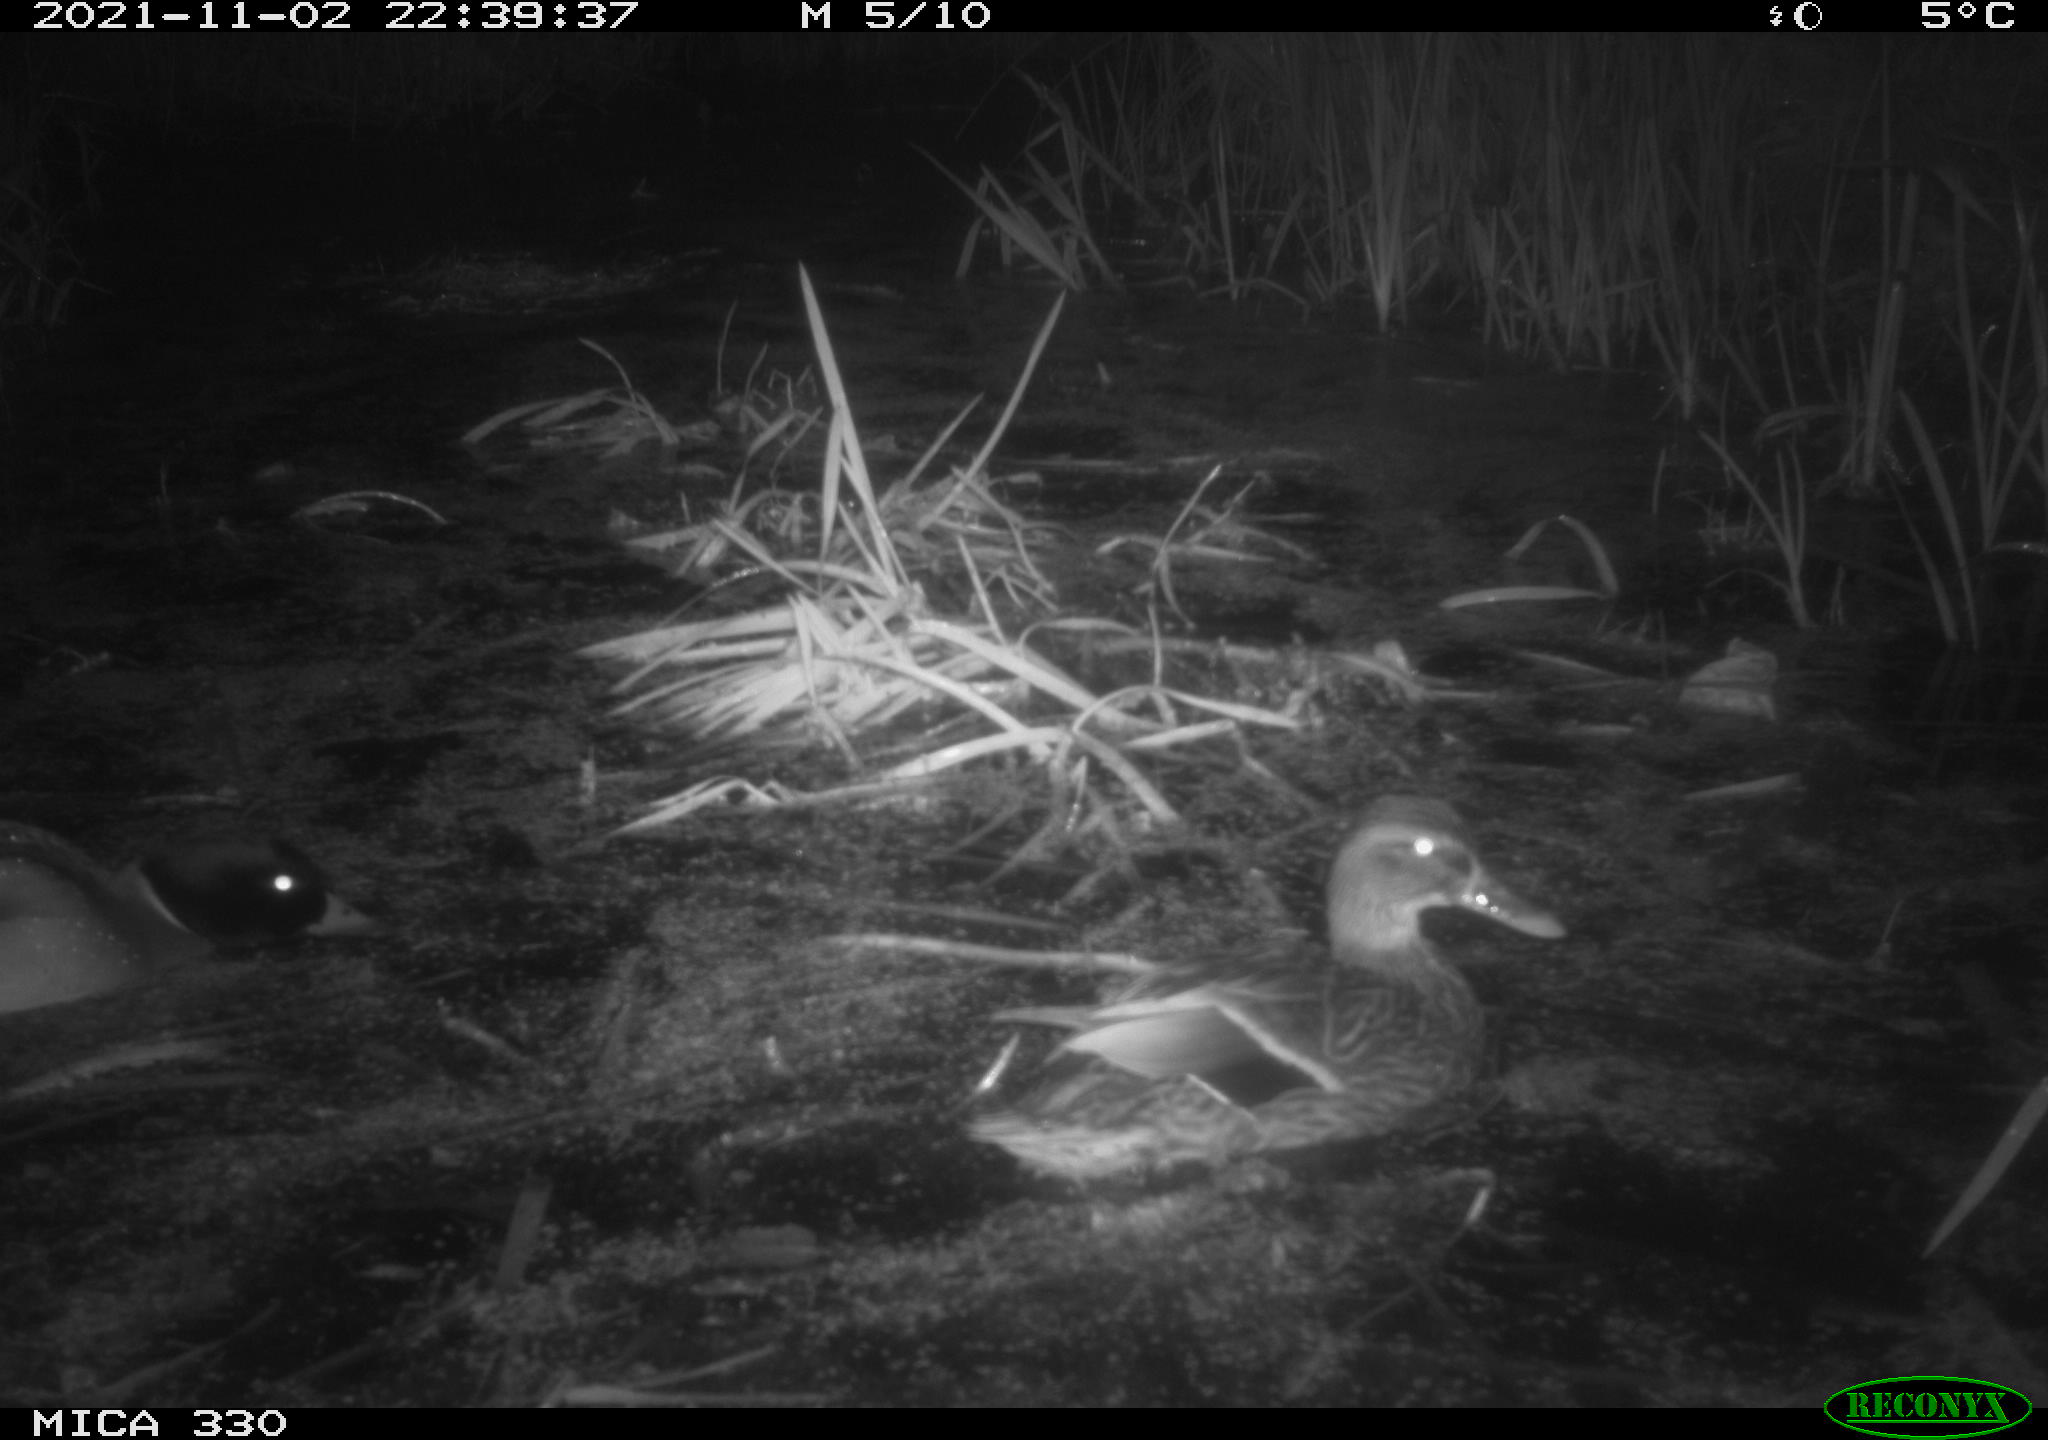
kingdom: Animalia
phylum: Chordata
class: Aves
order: Anseriformes
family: Anatidae
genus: Anas
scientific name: Anas platyrhynchos
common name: Mallard
